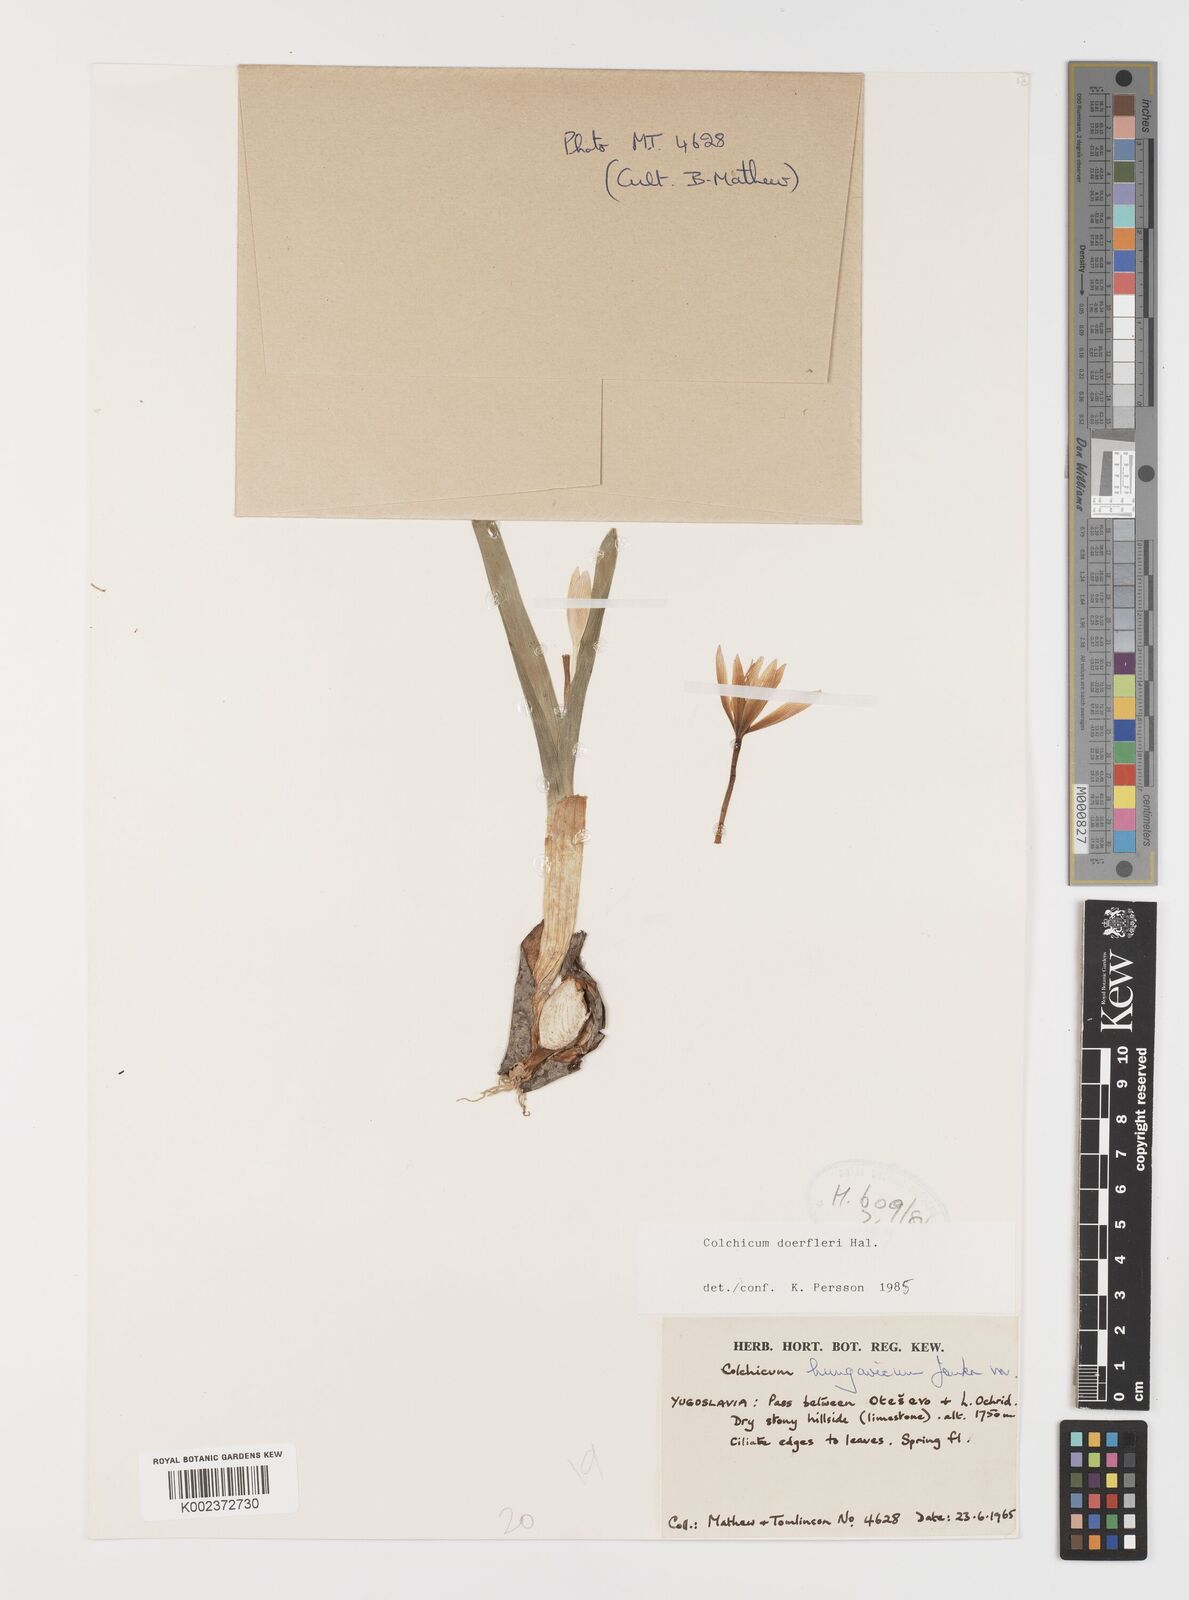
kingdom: Plantae
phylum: Tracheophyta
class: Liliopsida
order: Liliales
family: Colchicaceae
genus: Colchicum
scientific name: Colchicum doerfleri
